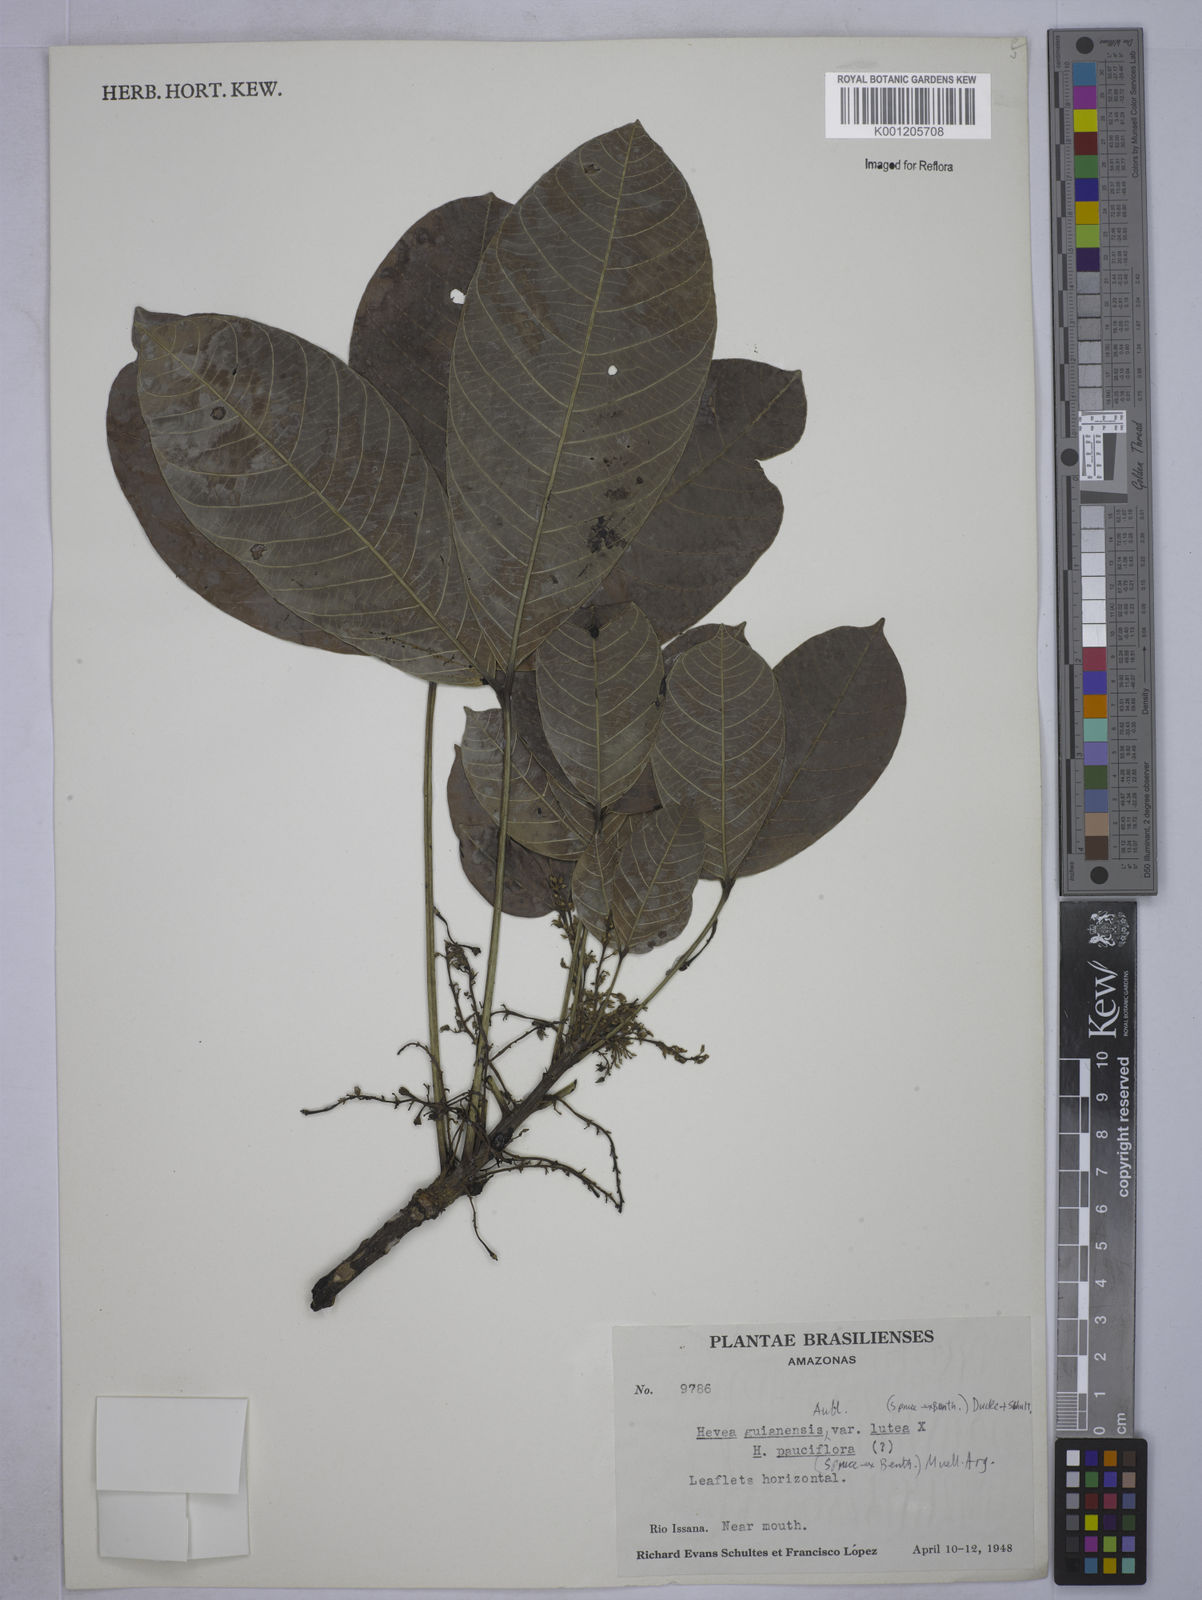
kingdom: Plantae
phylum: Tracheophyta
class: Magnoliopsida
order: Malpighiales
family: Euphorbiaceae
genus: Hevea
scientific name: Hevea guianensis
